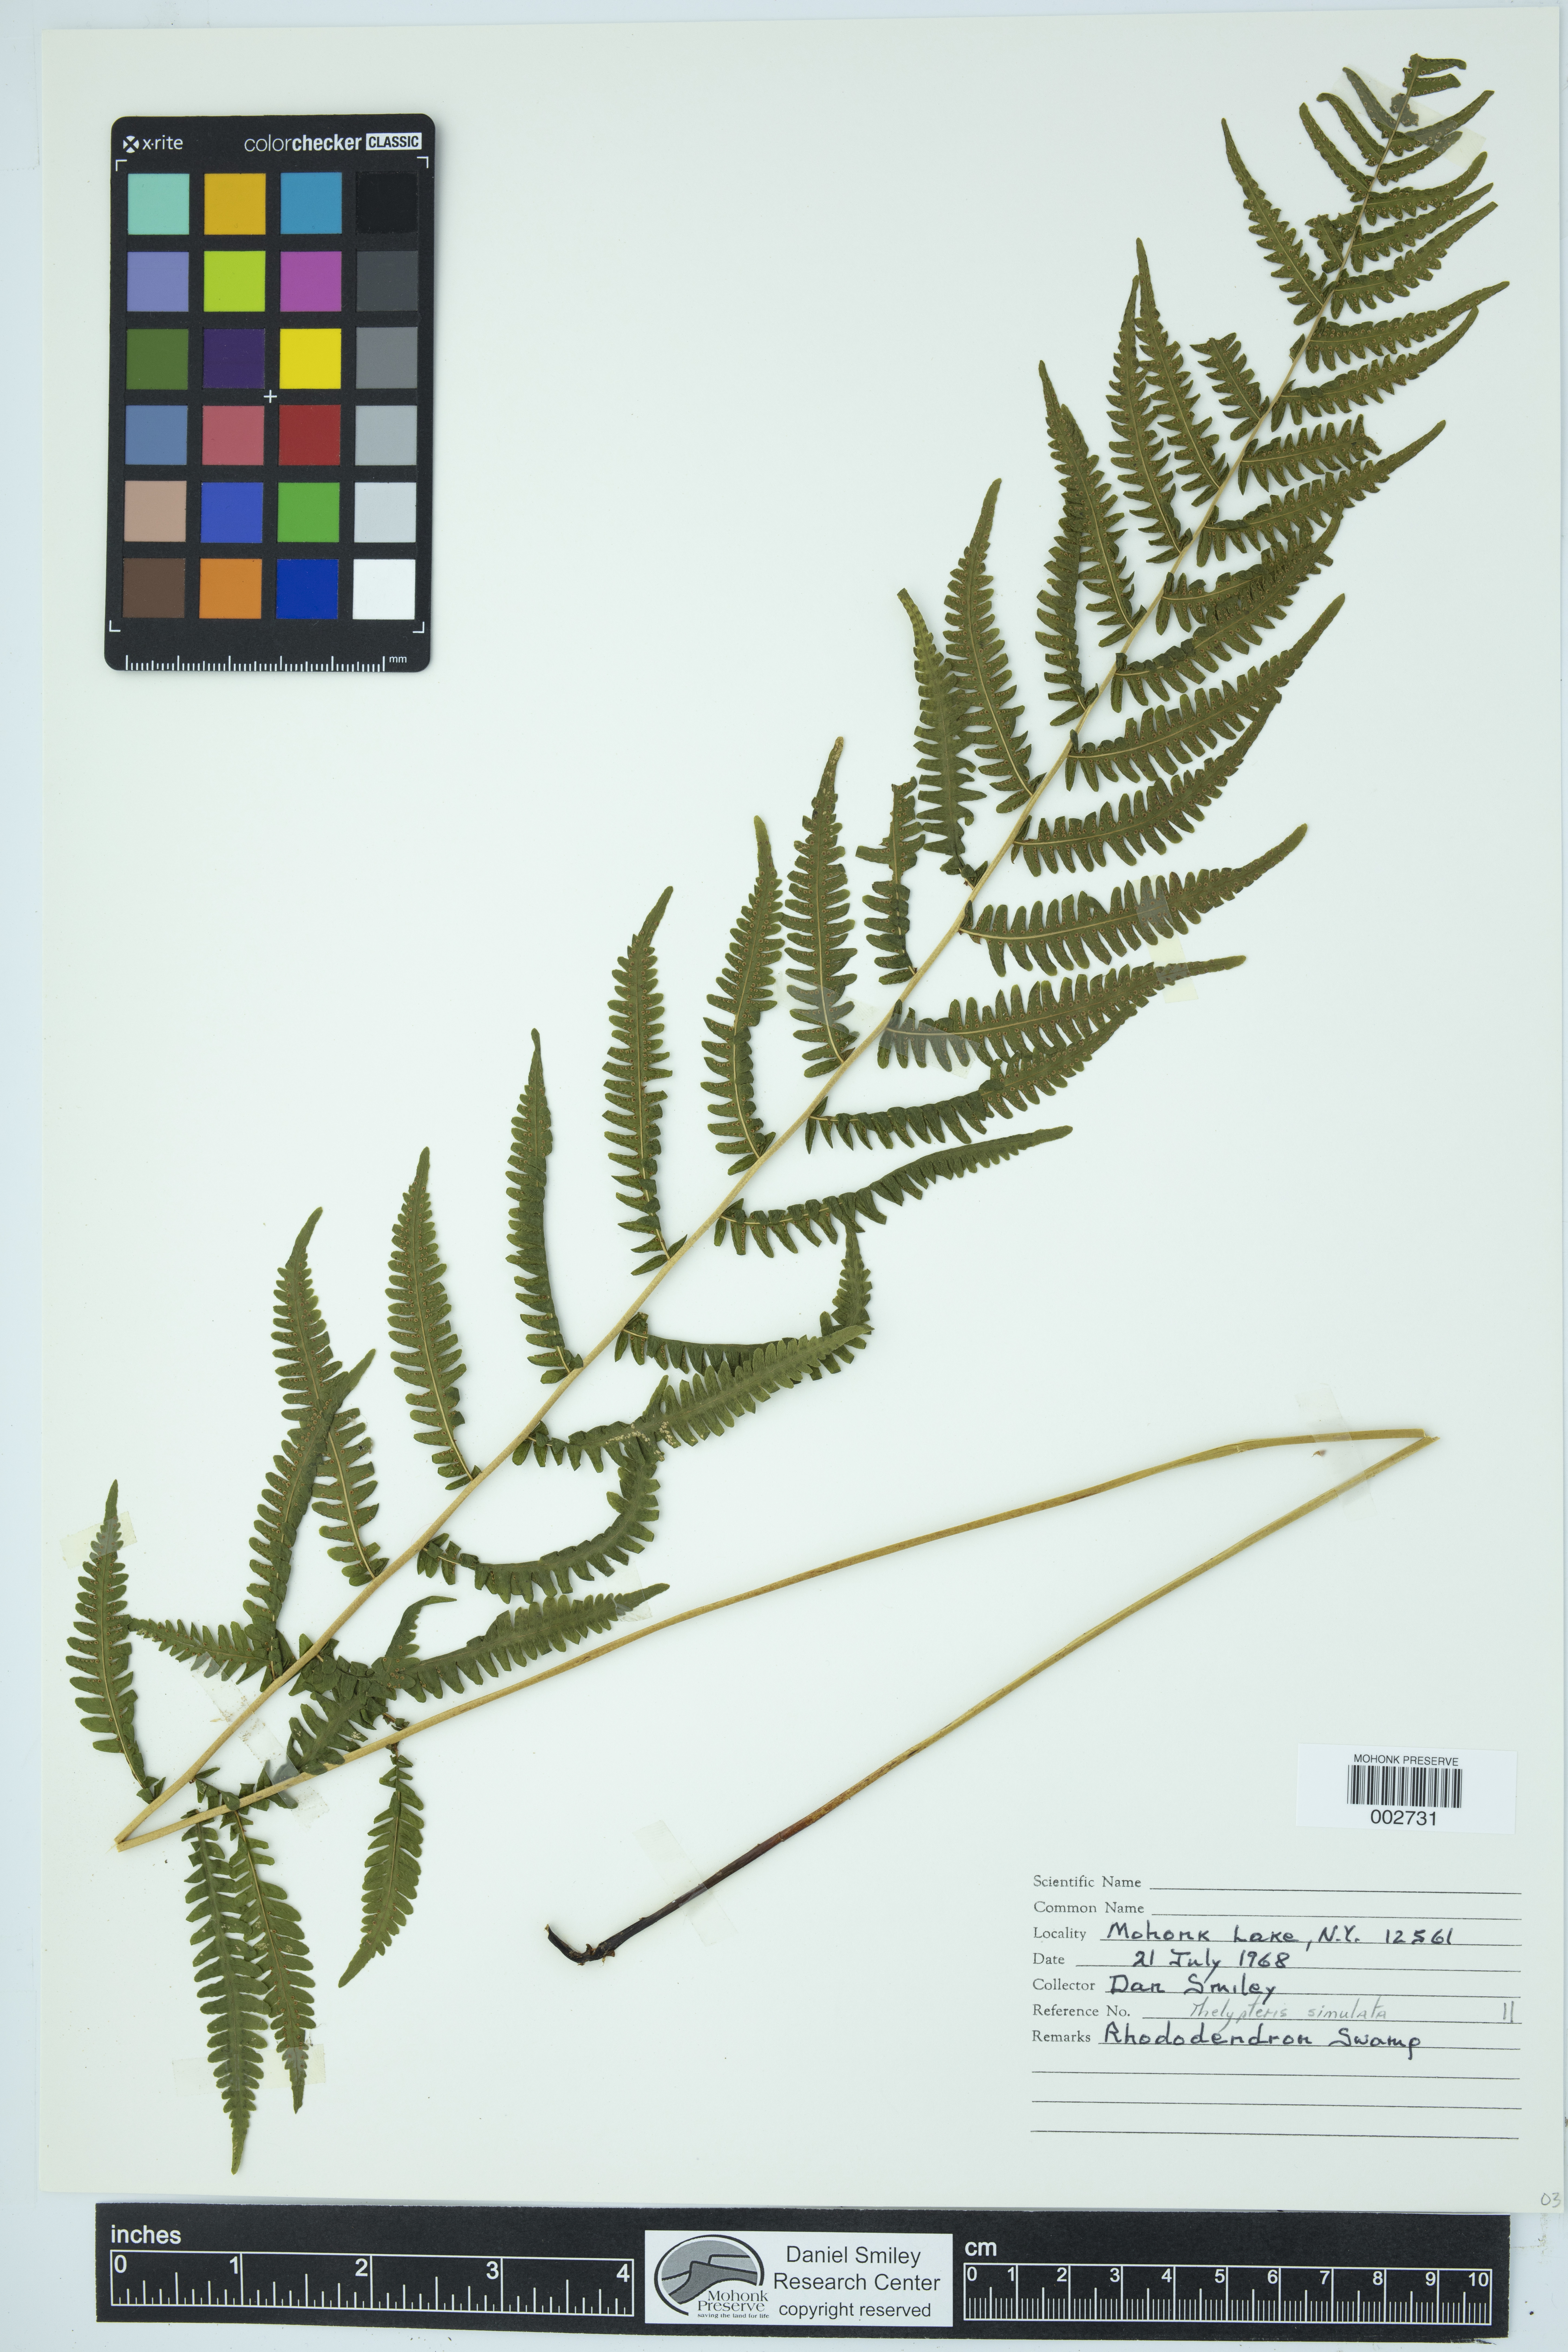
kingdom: Plantae
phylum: Tracheophyta
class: Polypodiopsida
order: Polypodiales
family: Thelypteridaceae
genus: Coryphopteris
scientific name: Coryphopteris simulata
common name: Bog fern
